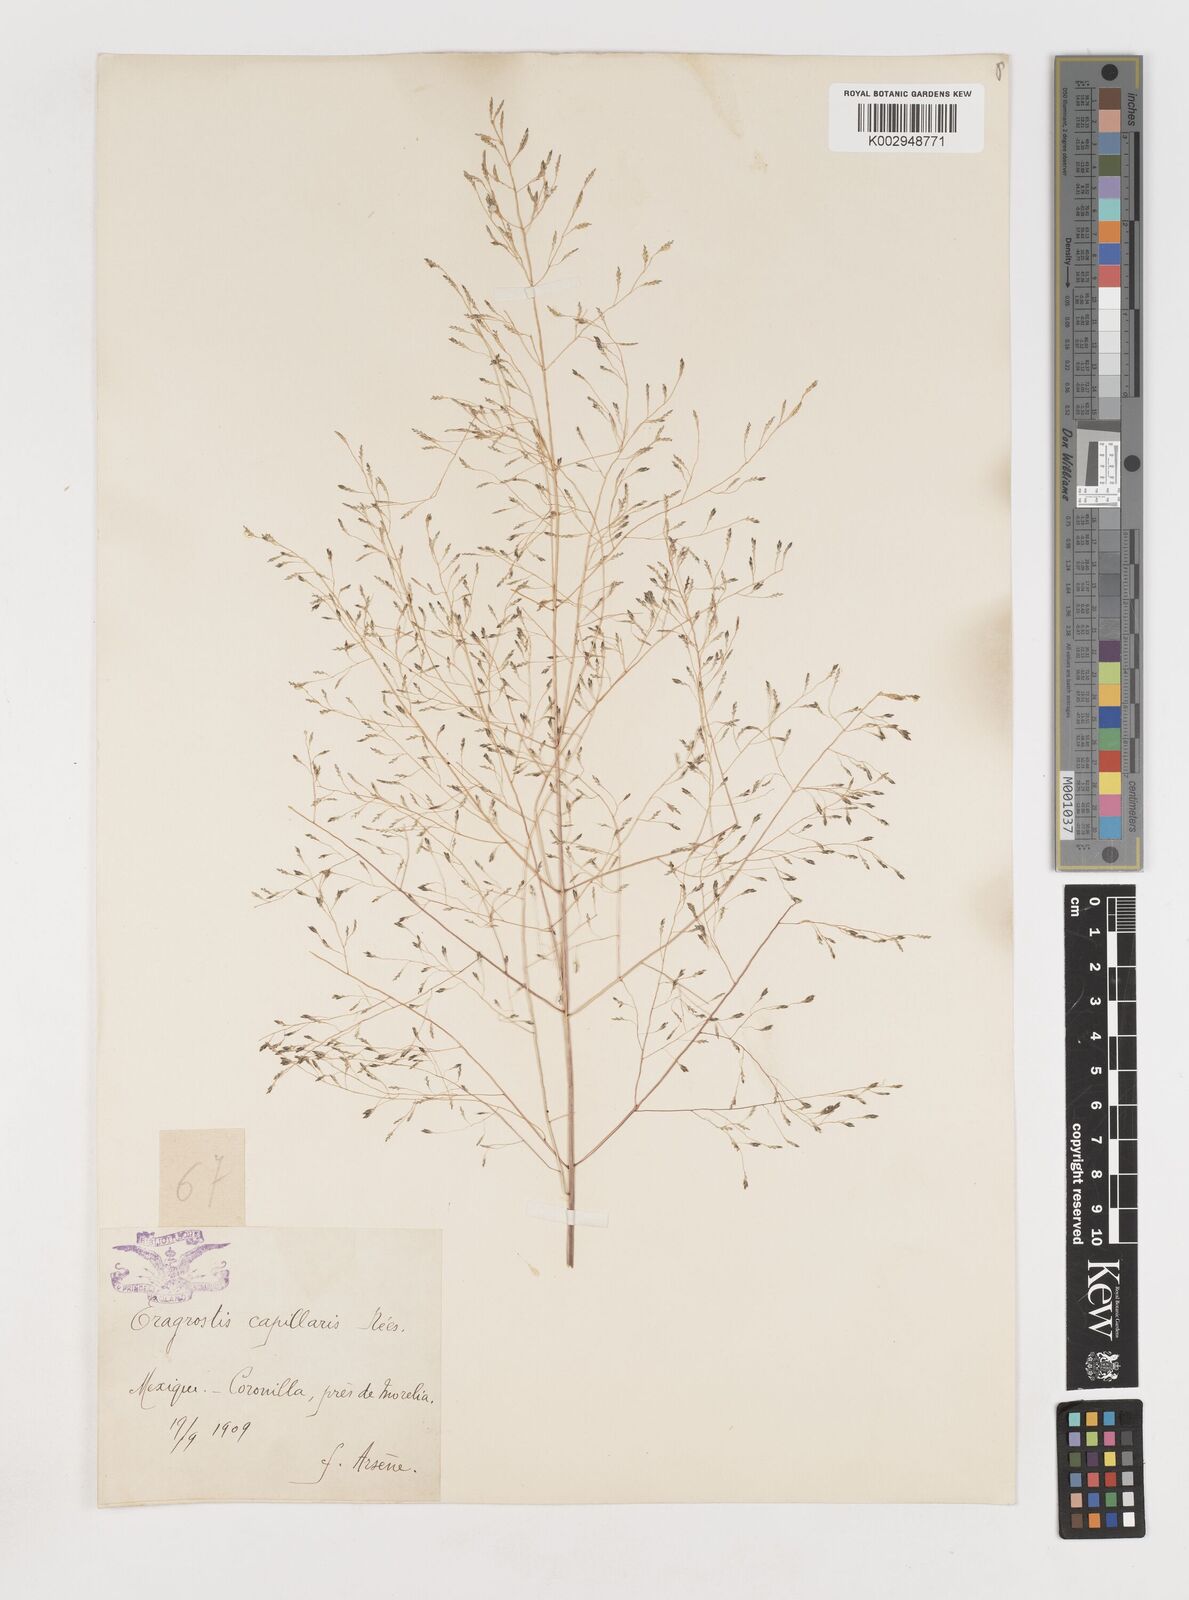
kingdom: Plantae
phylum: Tracheophyta
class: Liliopsida
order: Poales
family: Poaceae
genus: Eragrostis
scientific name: Eragrostis
